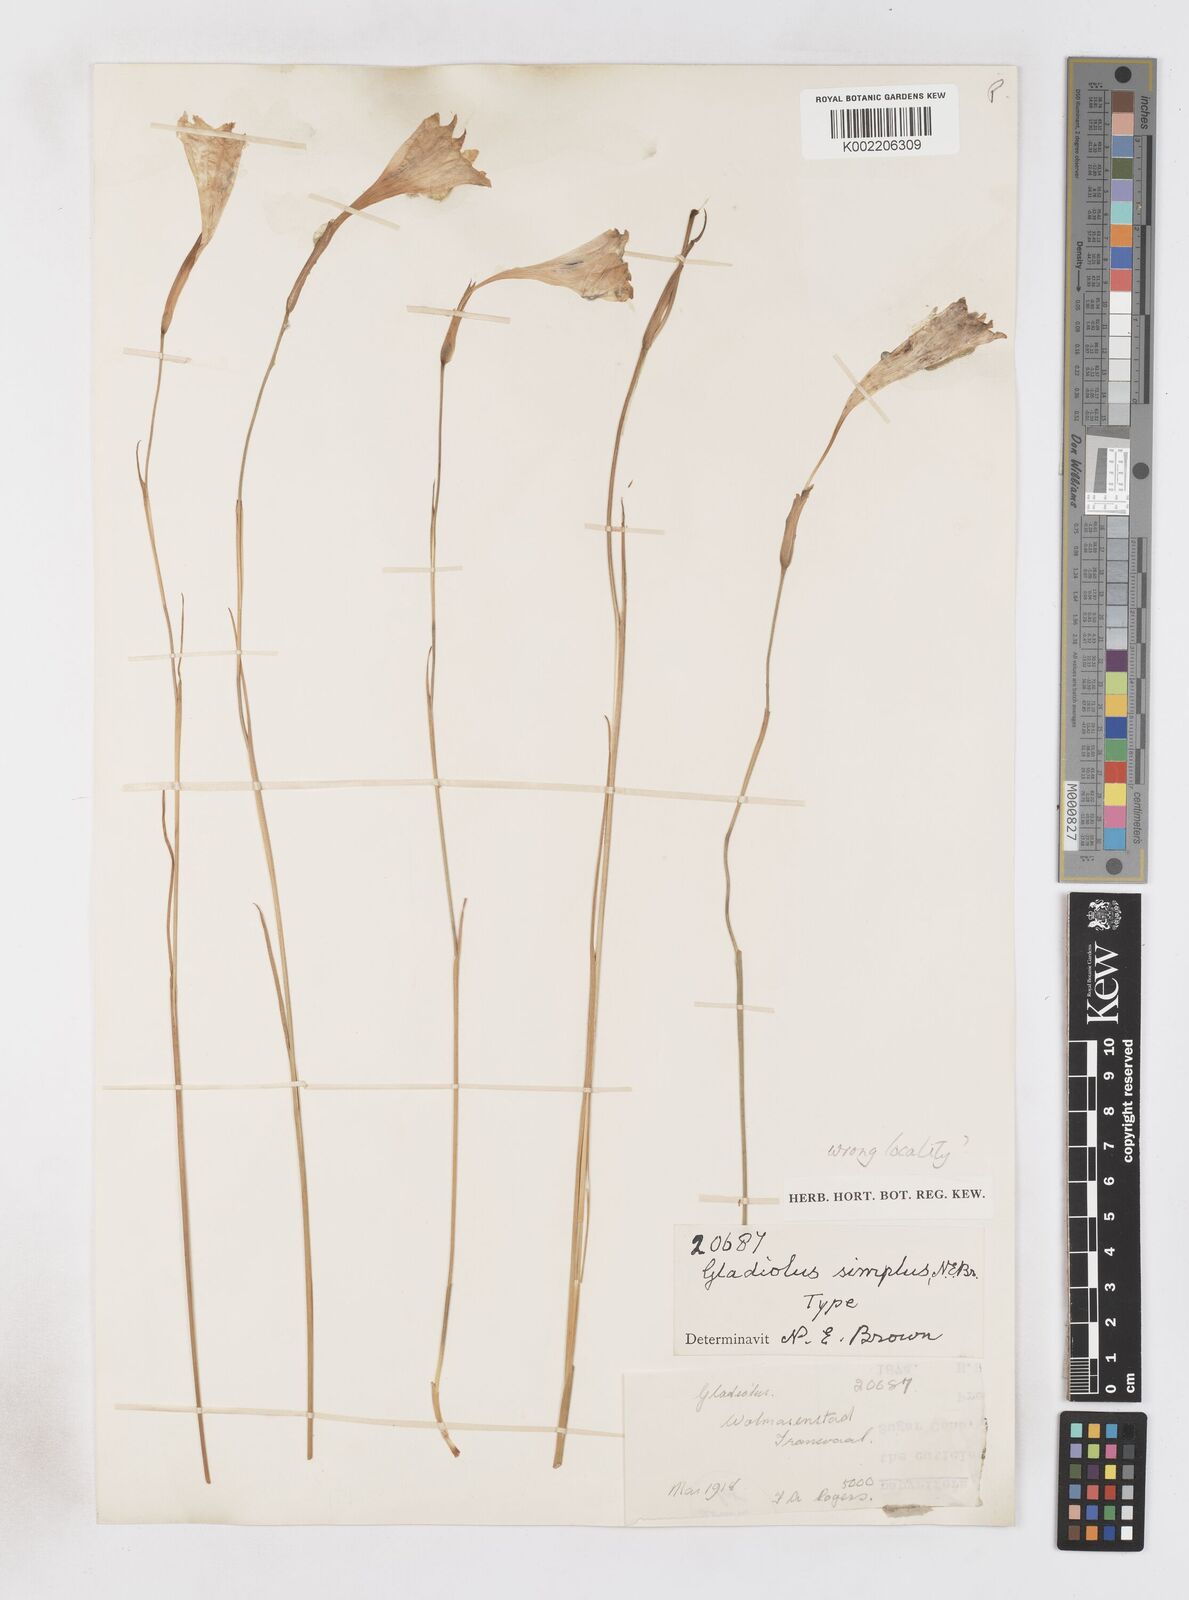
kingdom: Plantae
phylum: Tracheophyta
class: Liliopsida
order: Asparagales
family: Iridaceae
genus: Gladiolus
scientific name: Gladiolus maculatus
